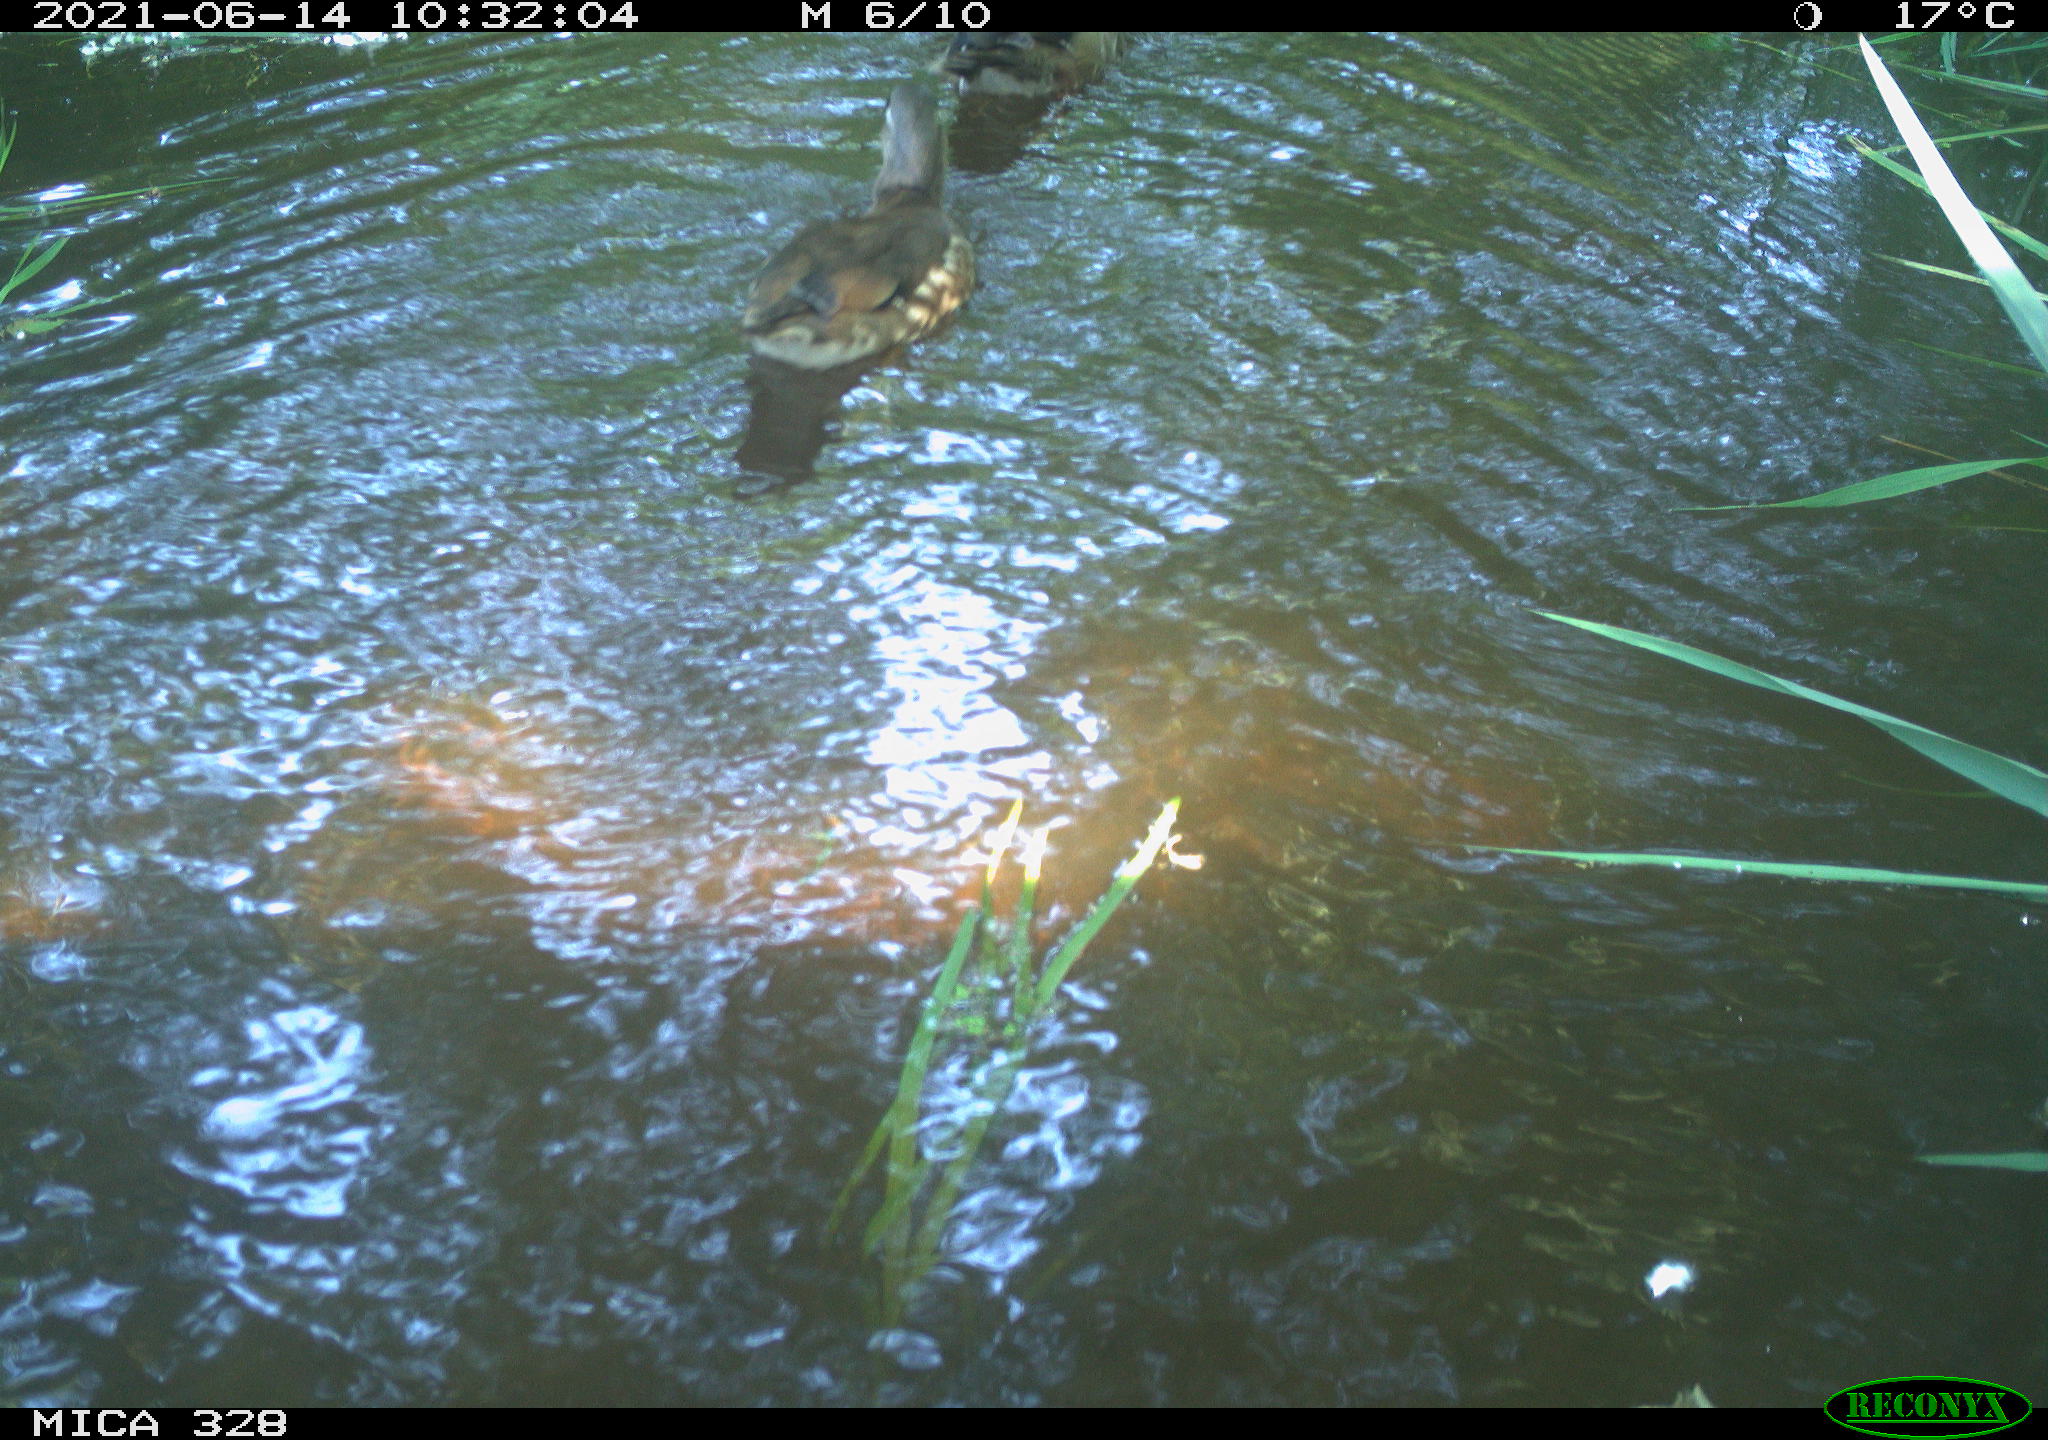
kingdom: Animalia
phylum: Chordata
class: Aves
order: Anseriformes
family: Anatidae
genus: Aix
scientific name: Aix galericulata
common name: Mandarin duck
